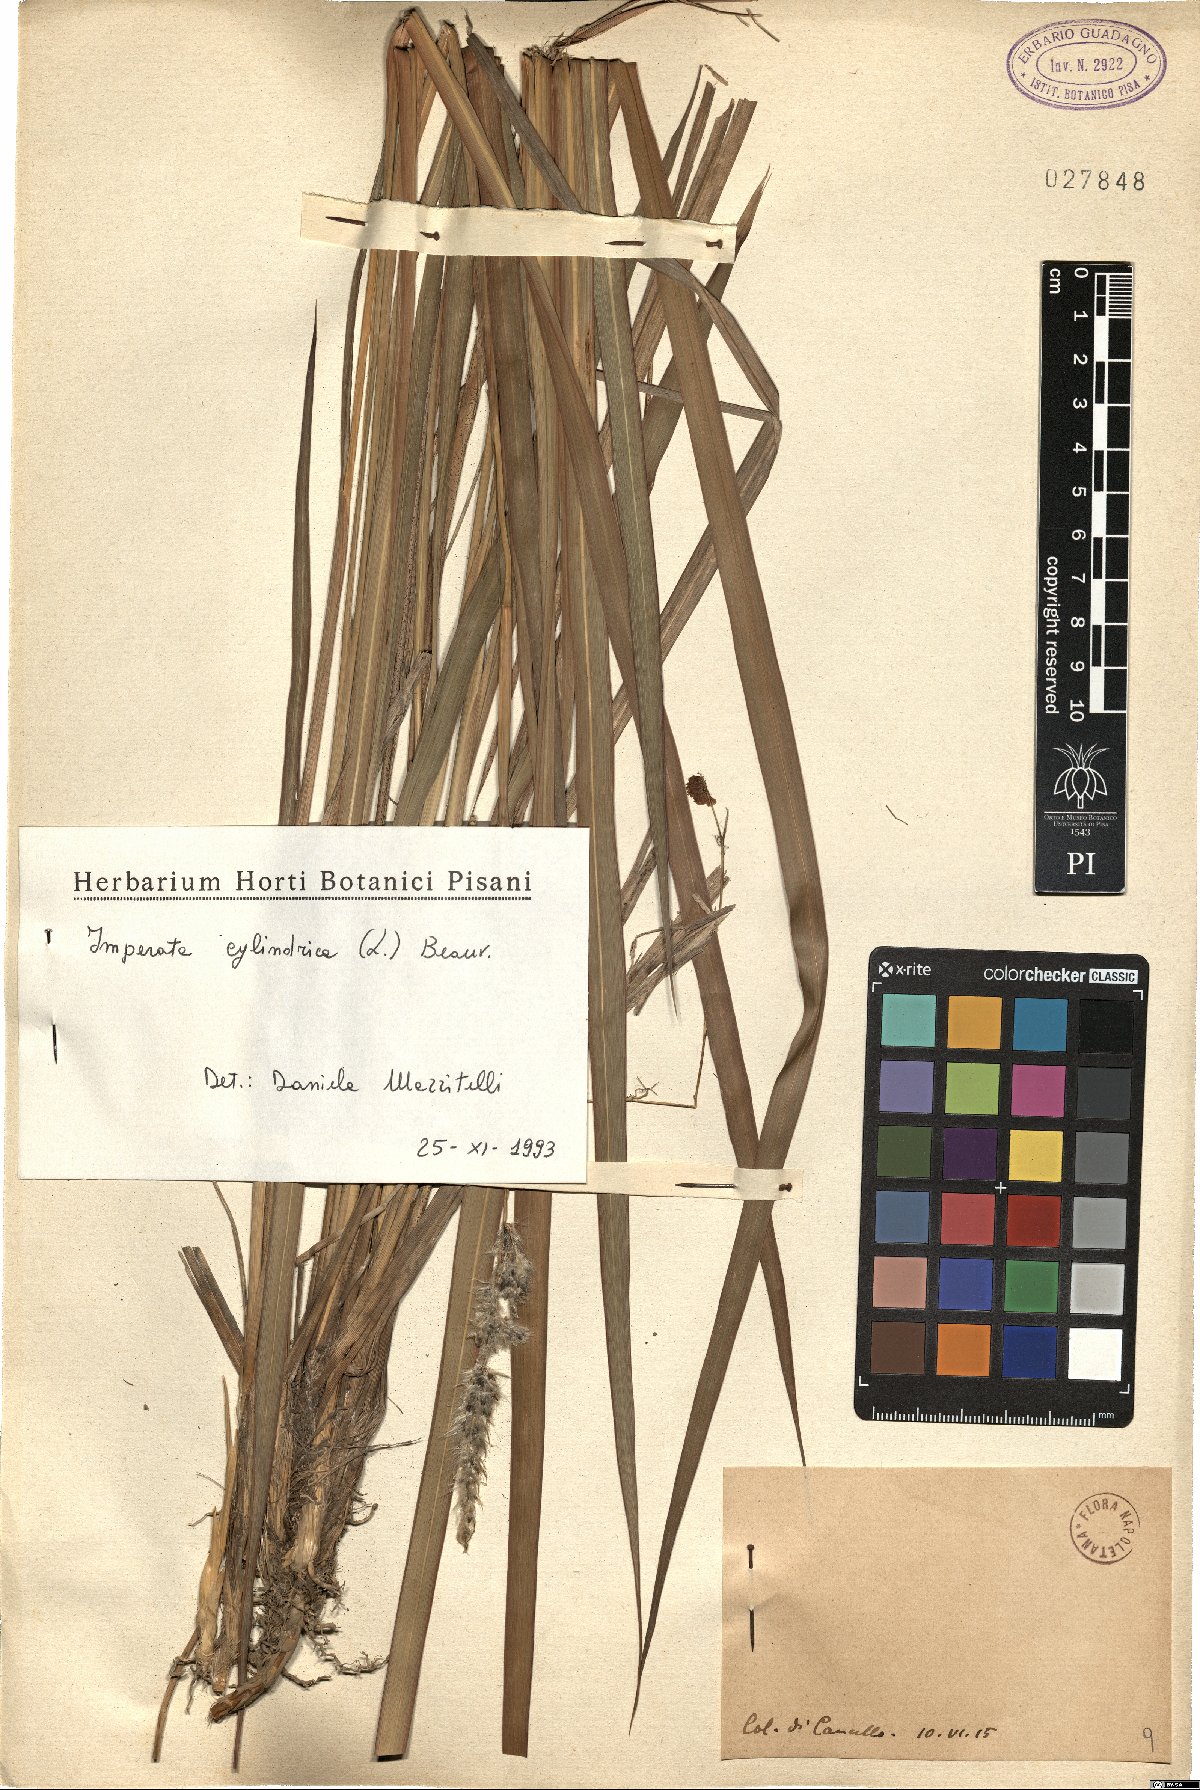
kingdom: Plantae
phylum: Tracheophyta
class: Liliopsida
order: Poales
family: Poaceae
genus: Imperata
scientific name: Imperata cylindrica
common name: Cogongrass
